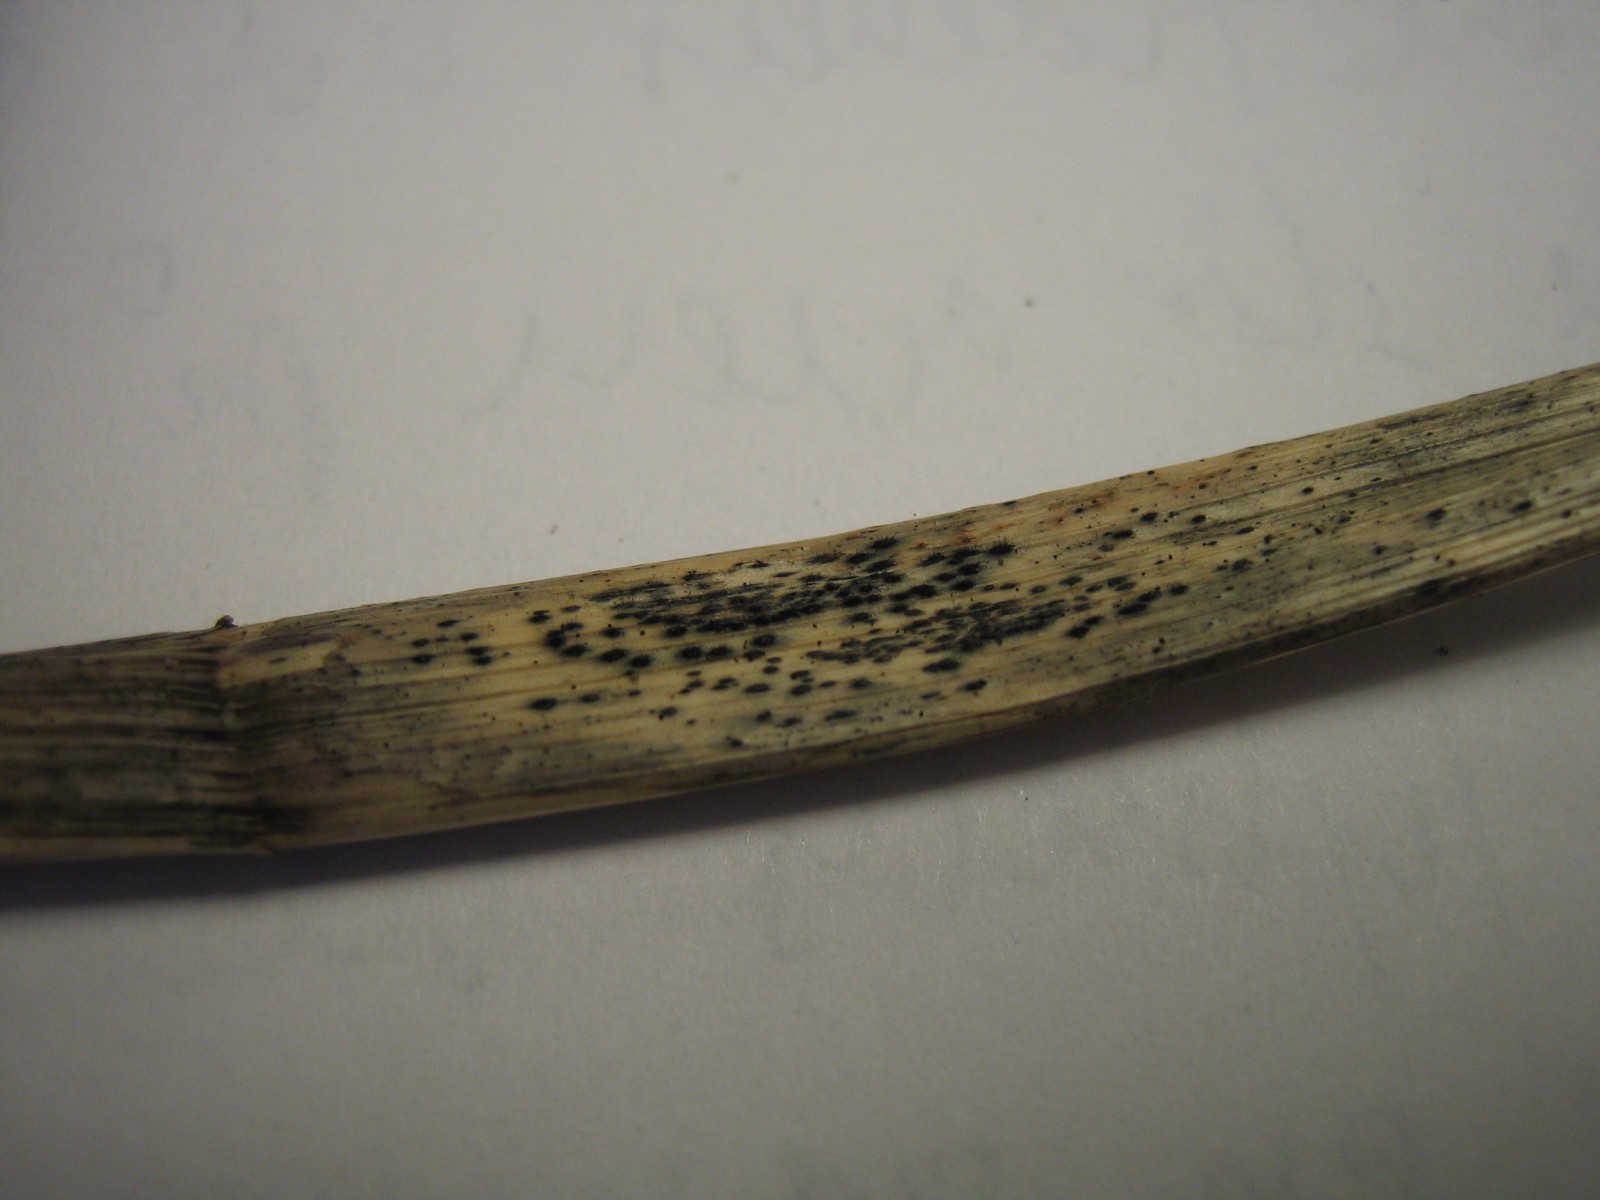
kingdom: Fungi
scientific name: Fungi
